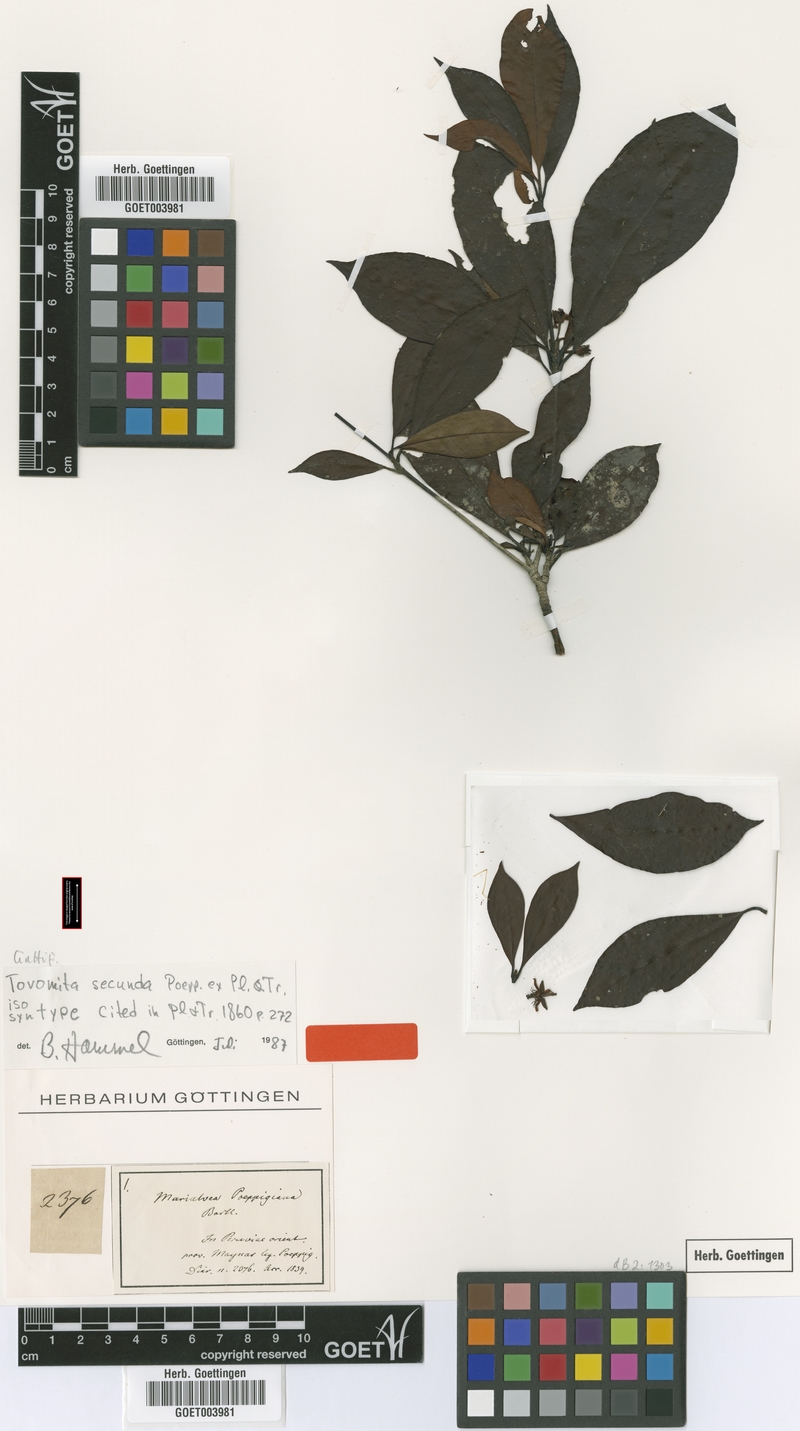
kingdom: Plantae
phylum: Tracheophyta
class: Magnoliopsida
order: Malpighiales
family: Clusiaceae
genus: Tovomita
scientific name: Tovomita secunda
